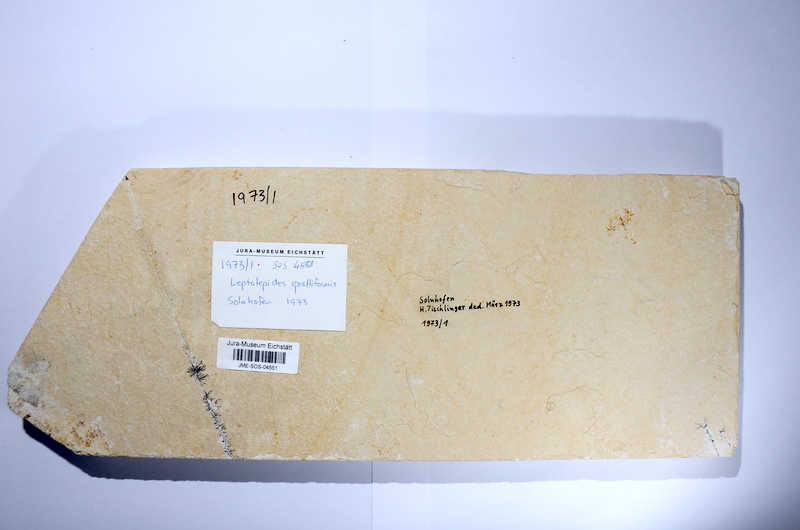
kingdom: Animalia
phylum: Chordata
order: Salmoniformes
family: Orthogonikleithridae
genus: Leptolepides
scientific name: Leptolepides sprattiformis
